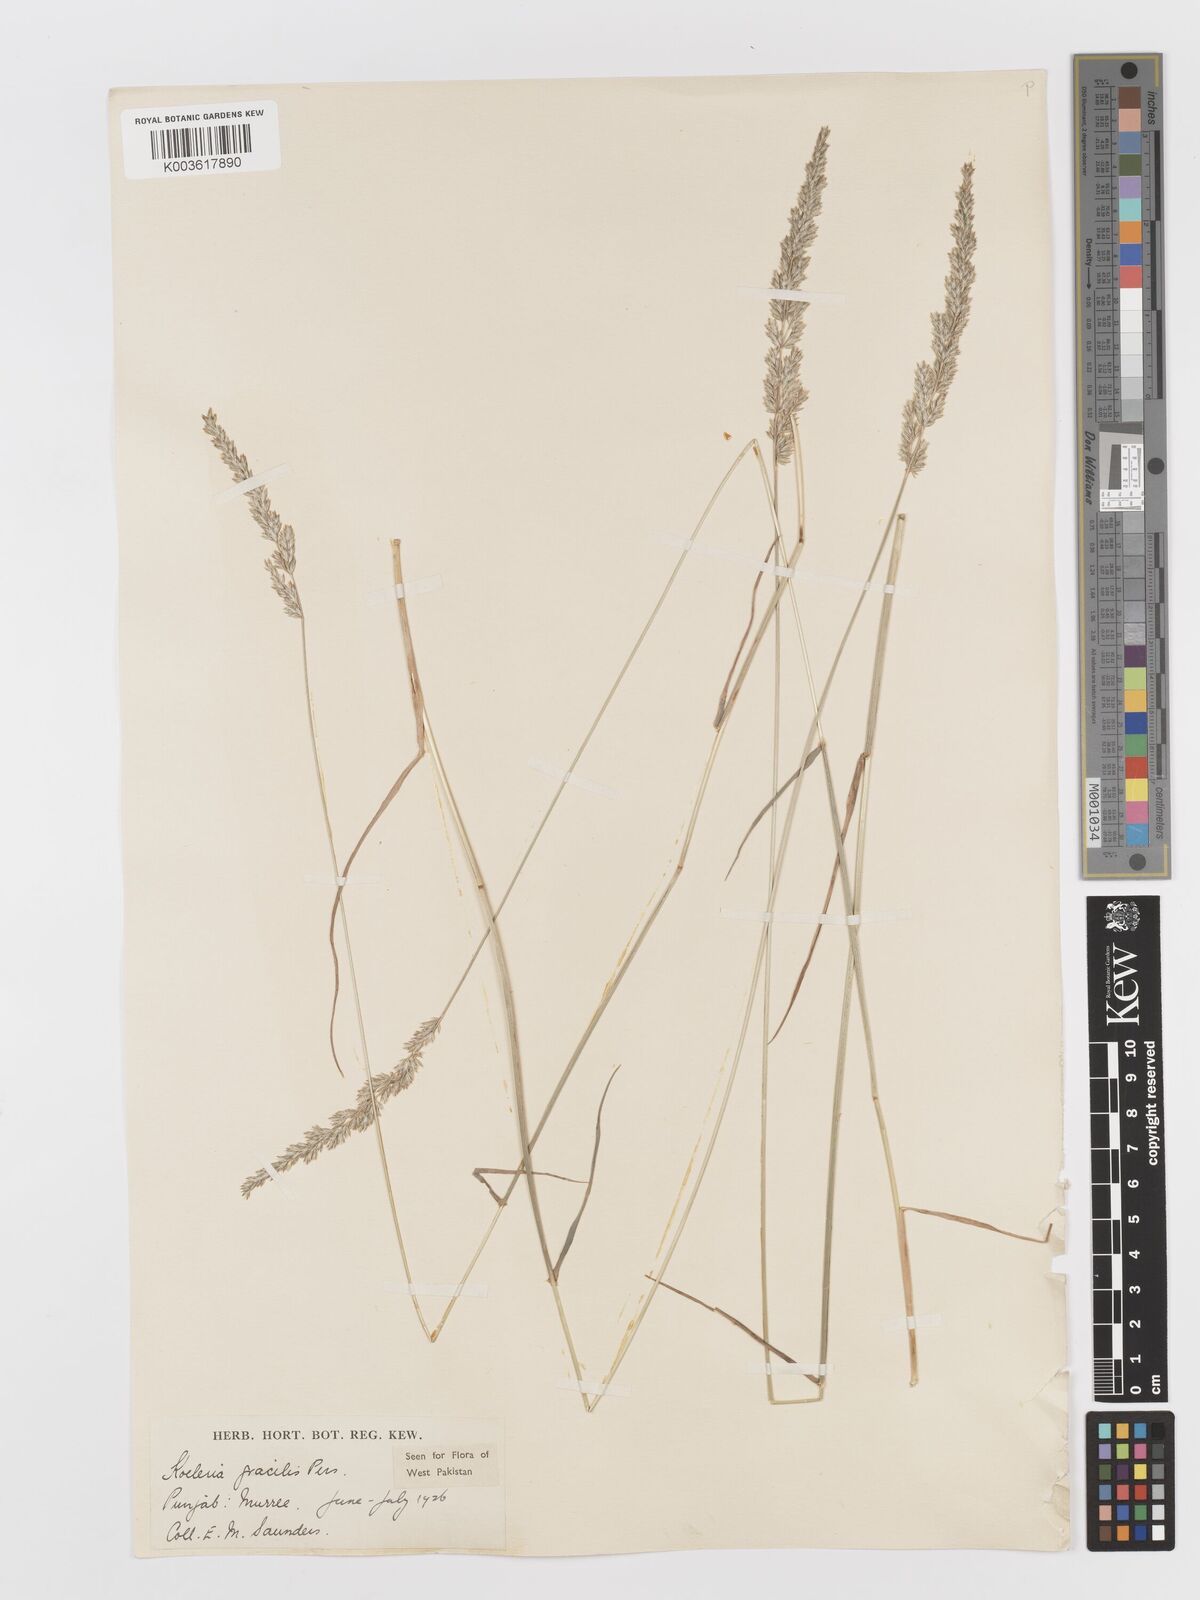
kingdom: Plantae
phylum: Tracheophyta
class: Liliopsida
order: Poales
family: Poaceae
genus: Koeleria
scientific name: Koeleria
